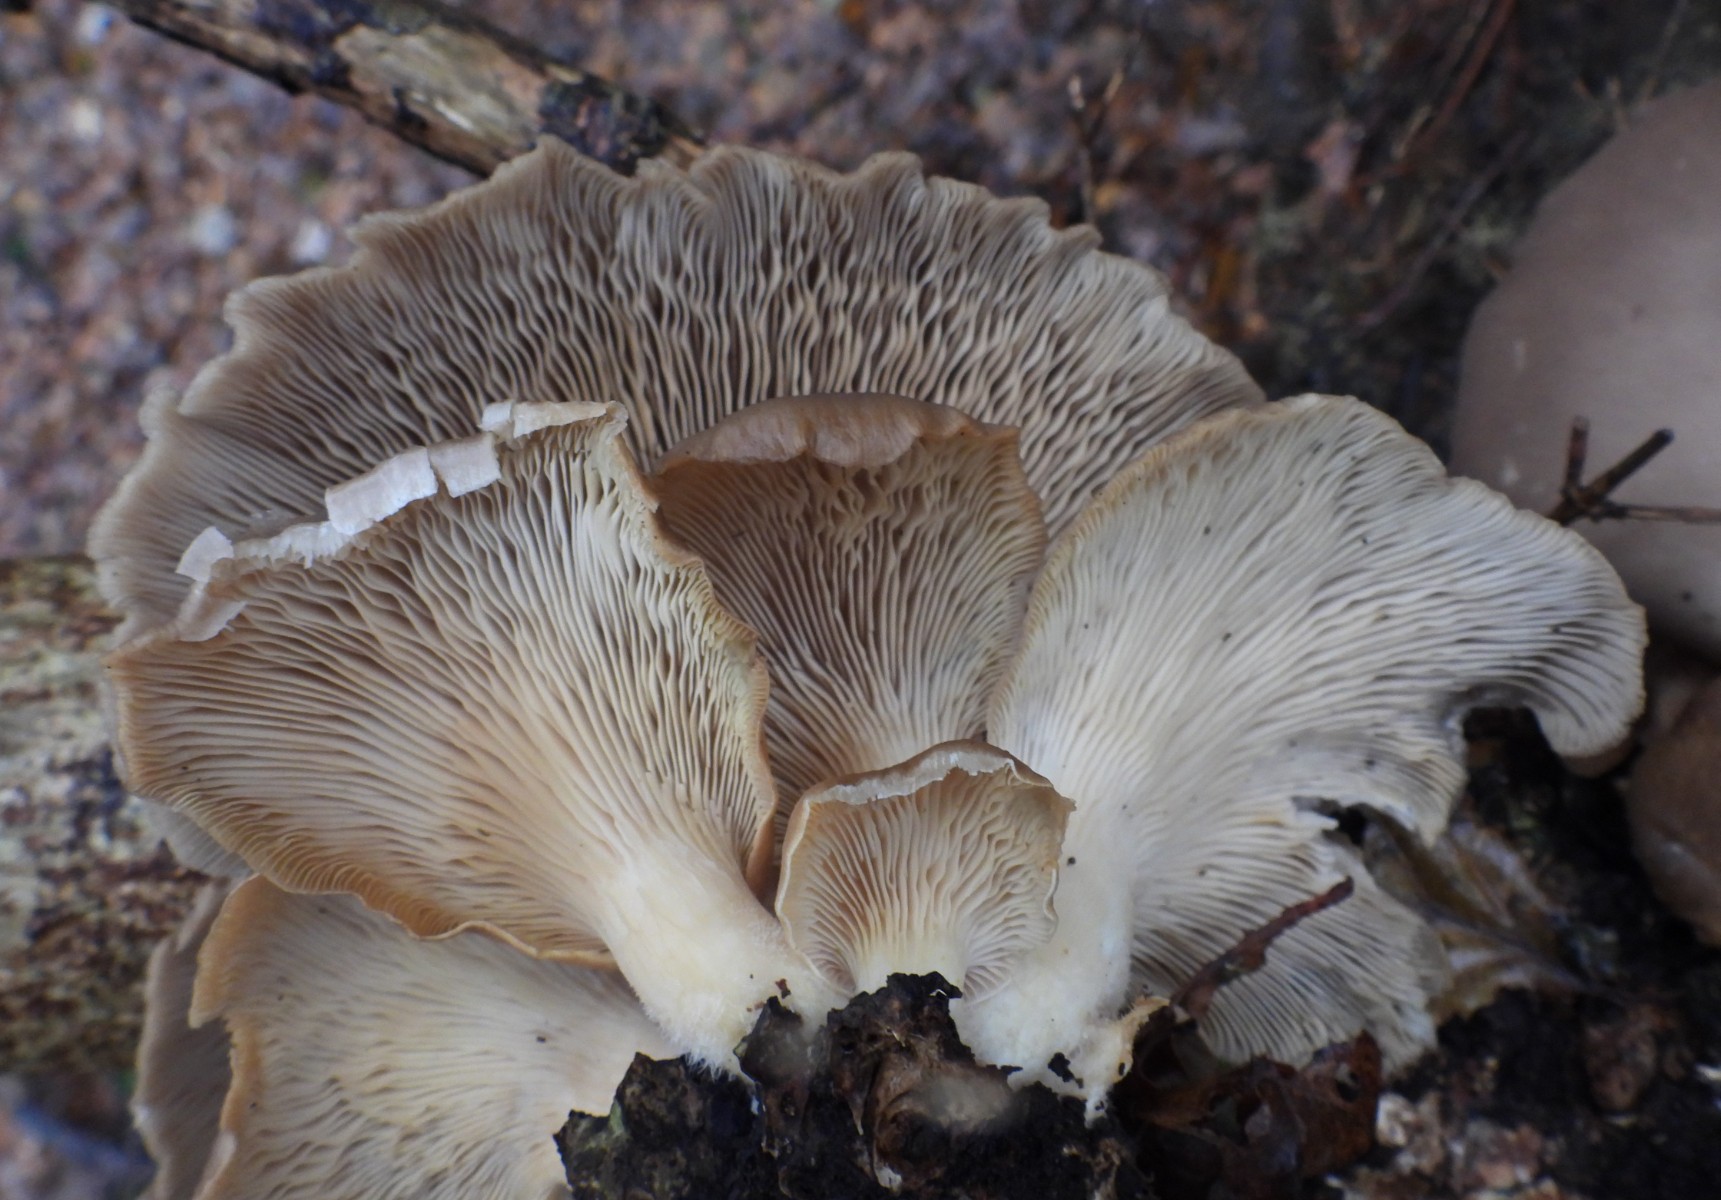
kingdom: Fungi
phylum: Basidiomycota
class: Agaricomycetes
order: Agaricales
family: Pleurotaceae
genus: Pleurotus
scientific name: Pleurotus ostreatus
